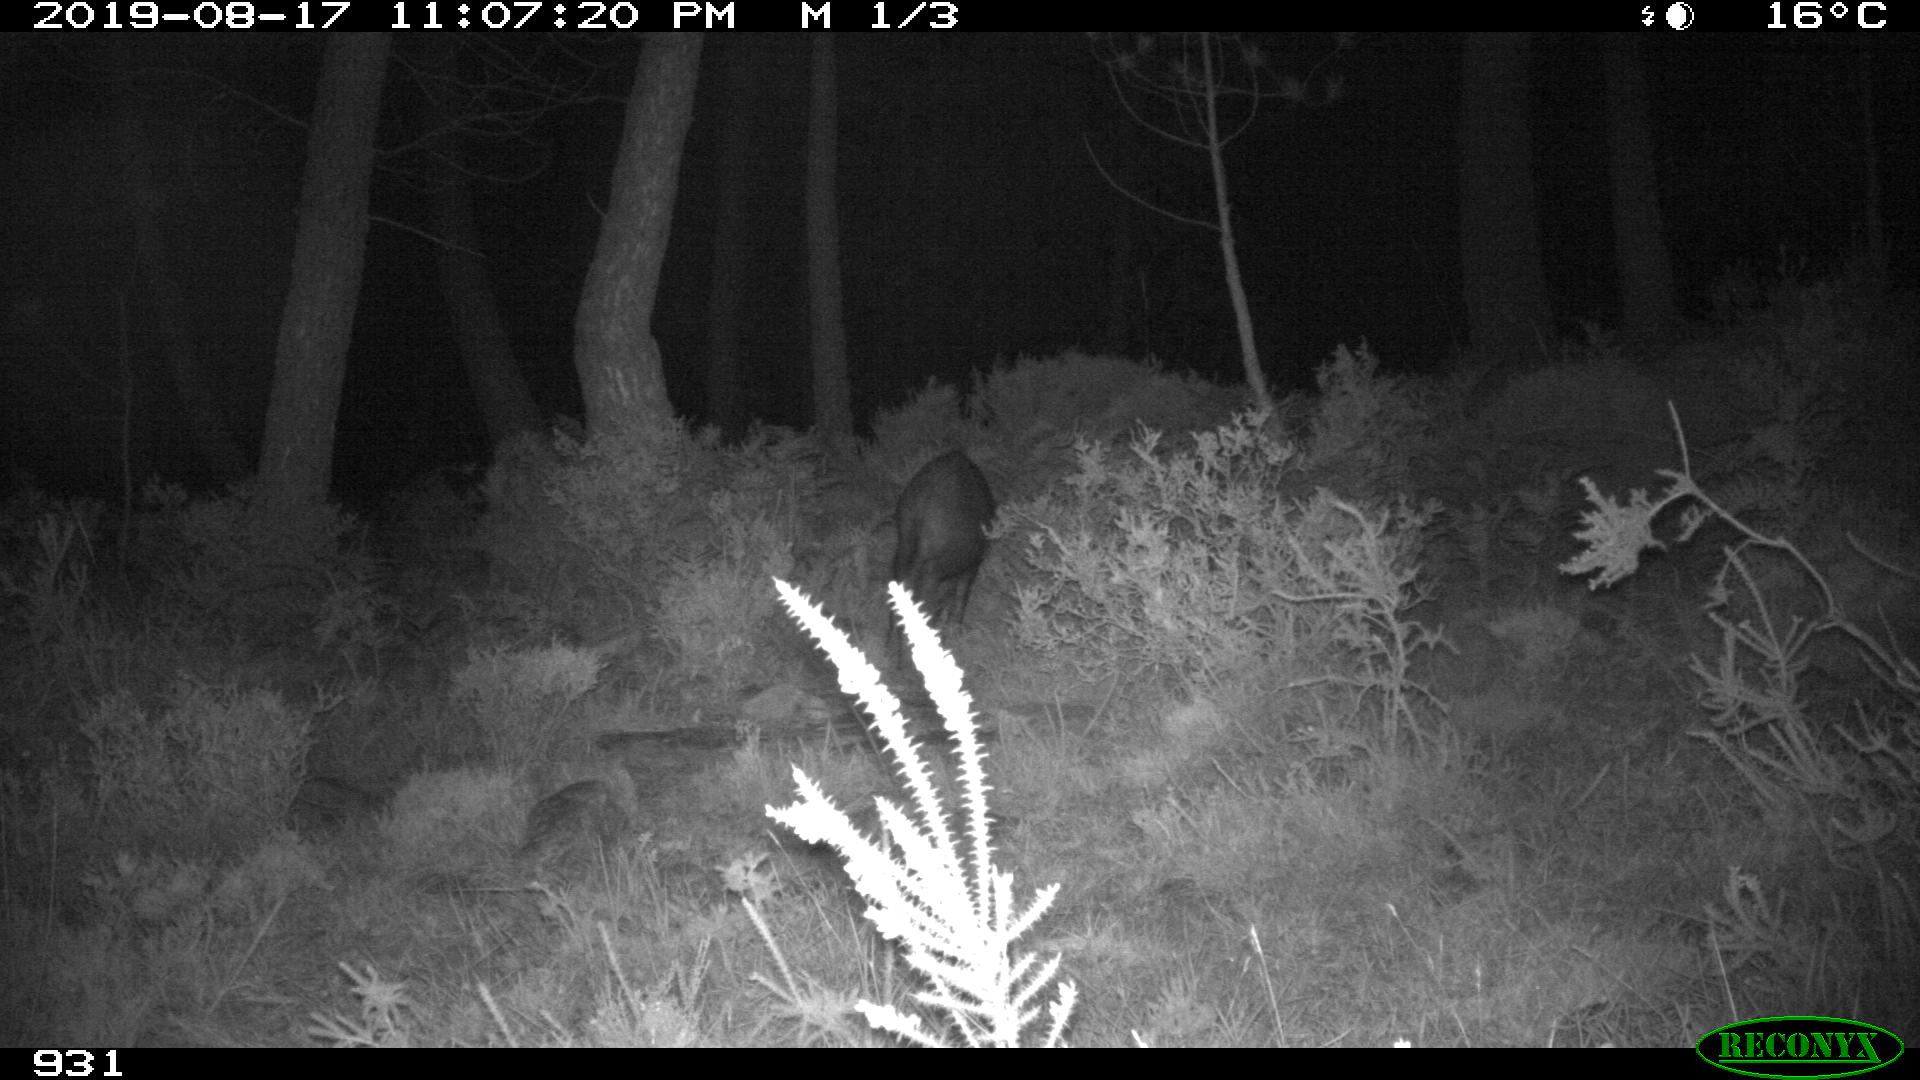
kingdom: Animalia
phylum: Chordata
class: Mammalia
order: Artiodactyla
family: Suidae
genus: Sus
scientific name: Sus scrofa
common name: Wild boar
